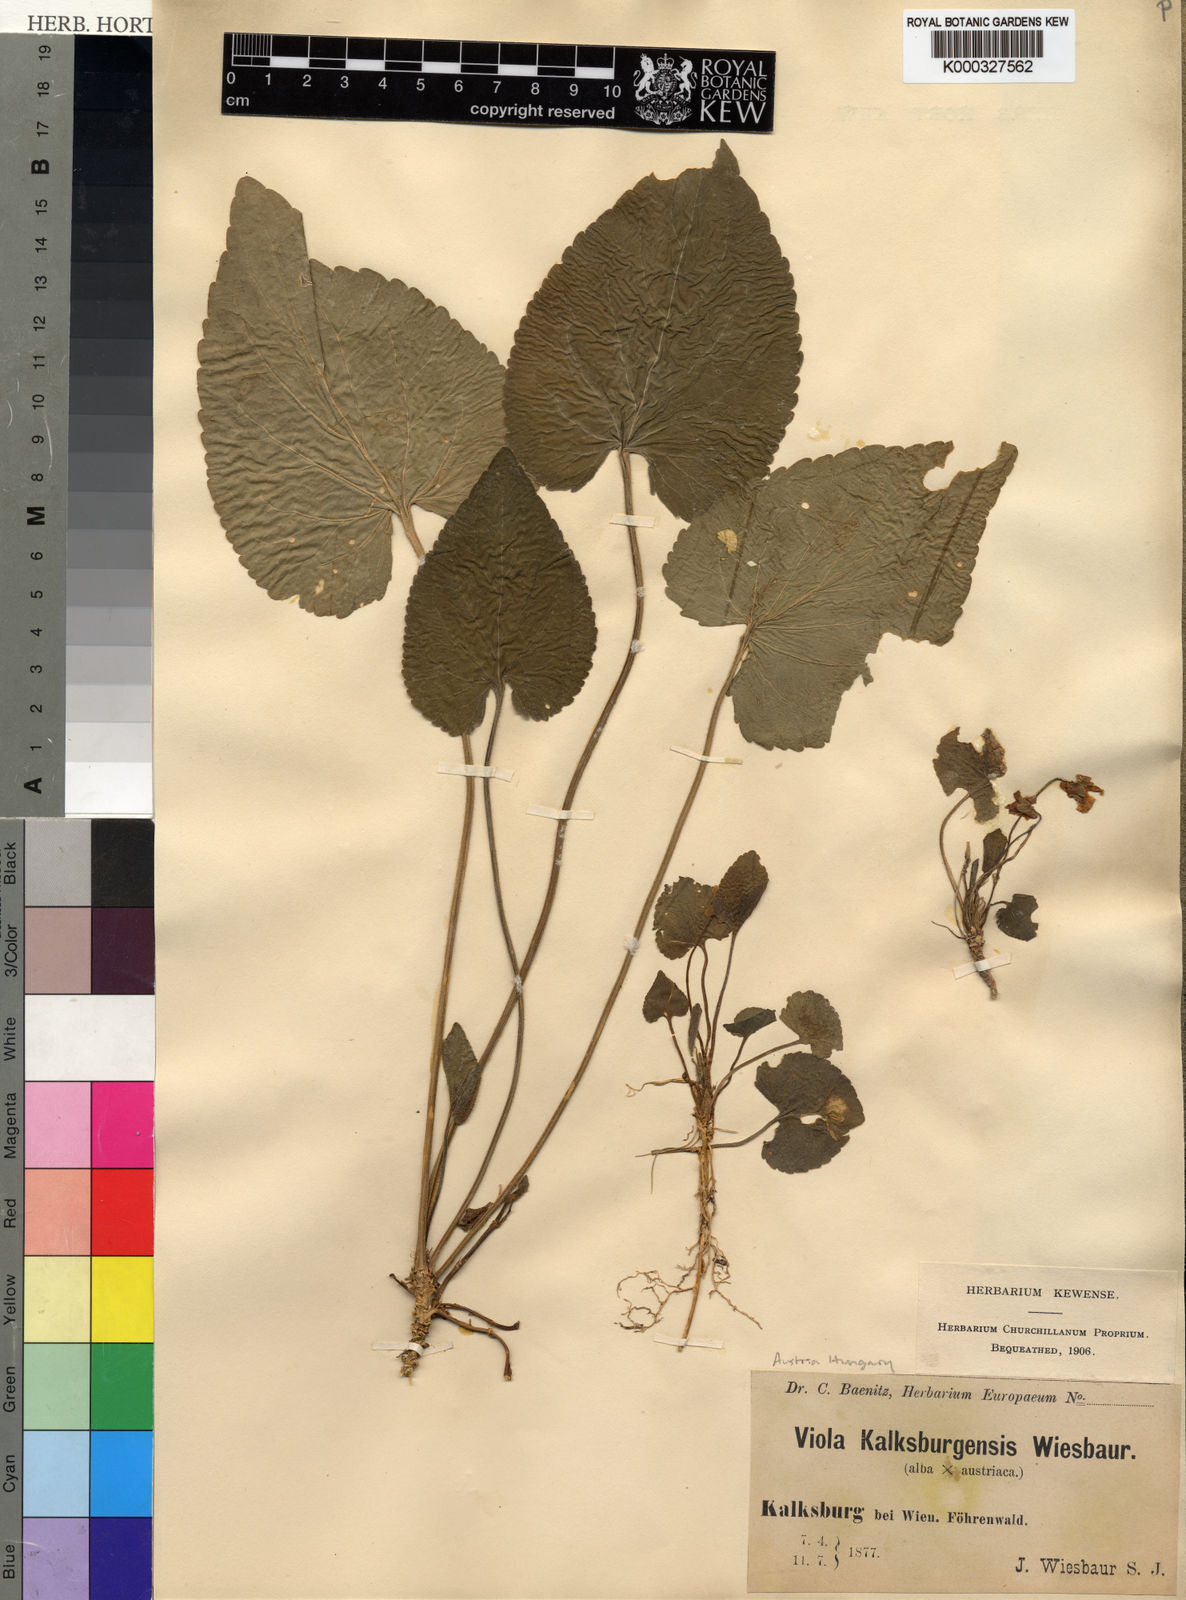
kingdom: Plantae
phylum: Tracheophyta
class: Magnoliopsida
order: Malpighiales
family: Violaceae
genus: Viola
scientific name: Viola alba
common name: White violet
